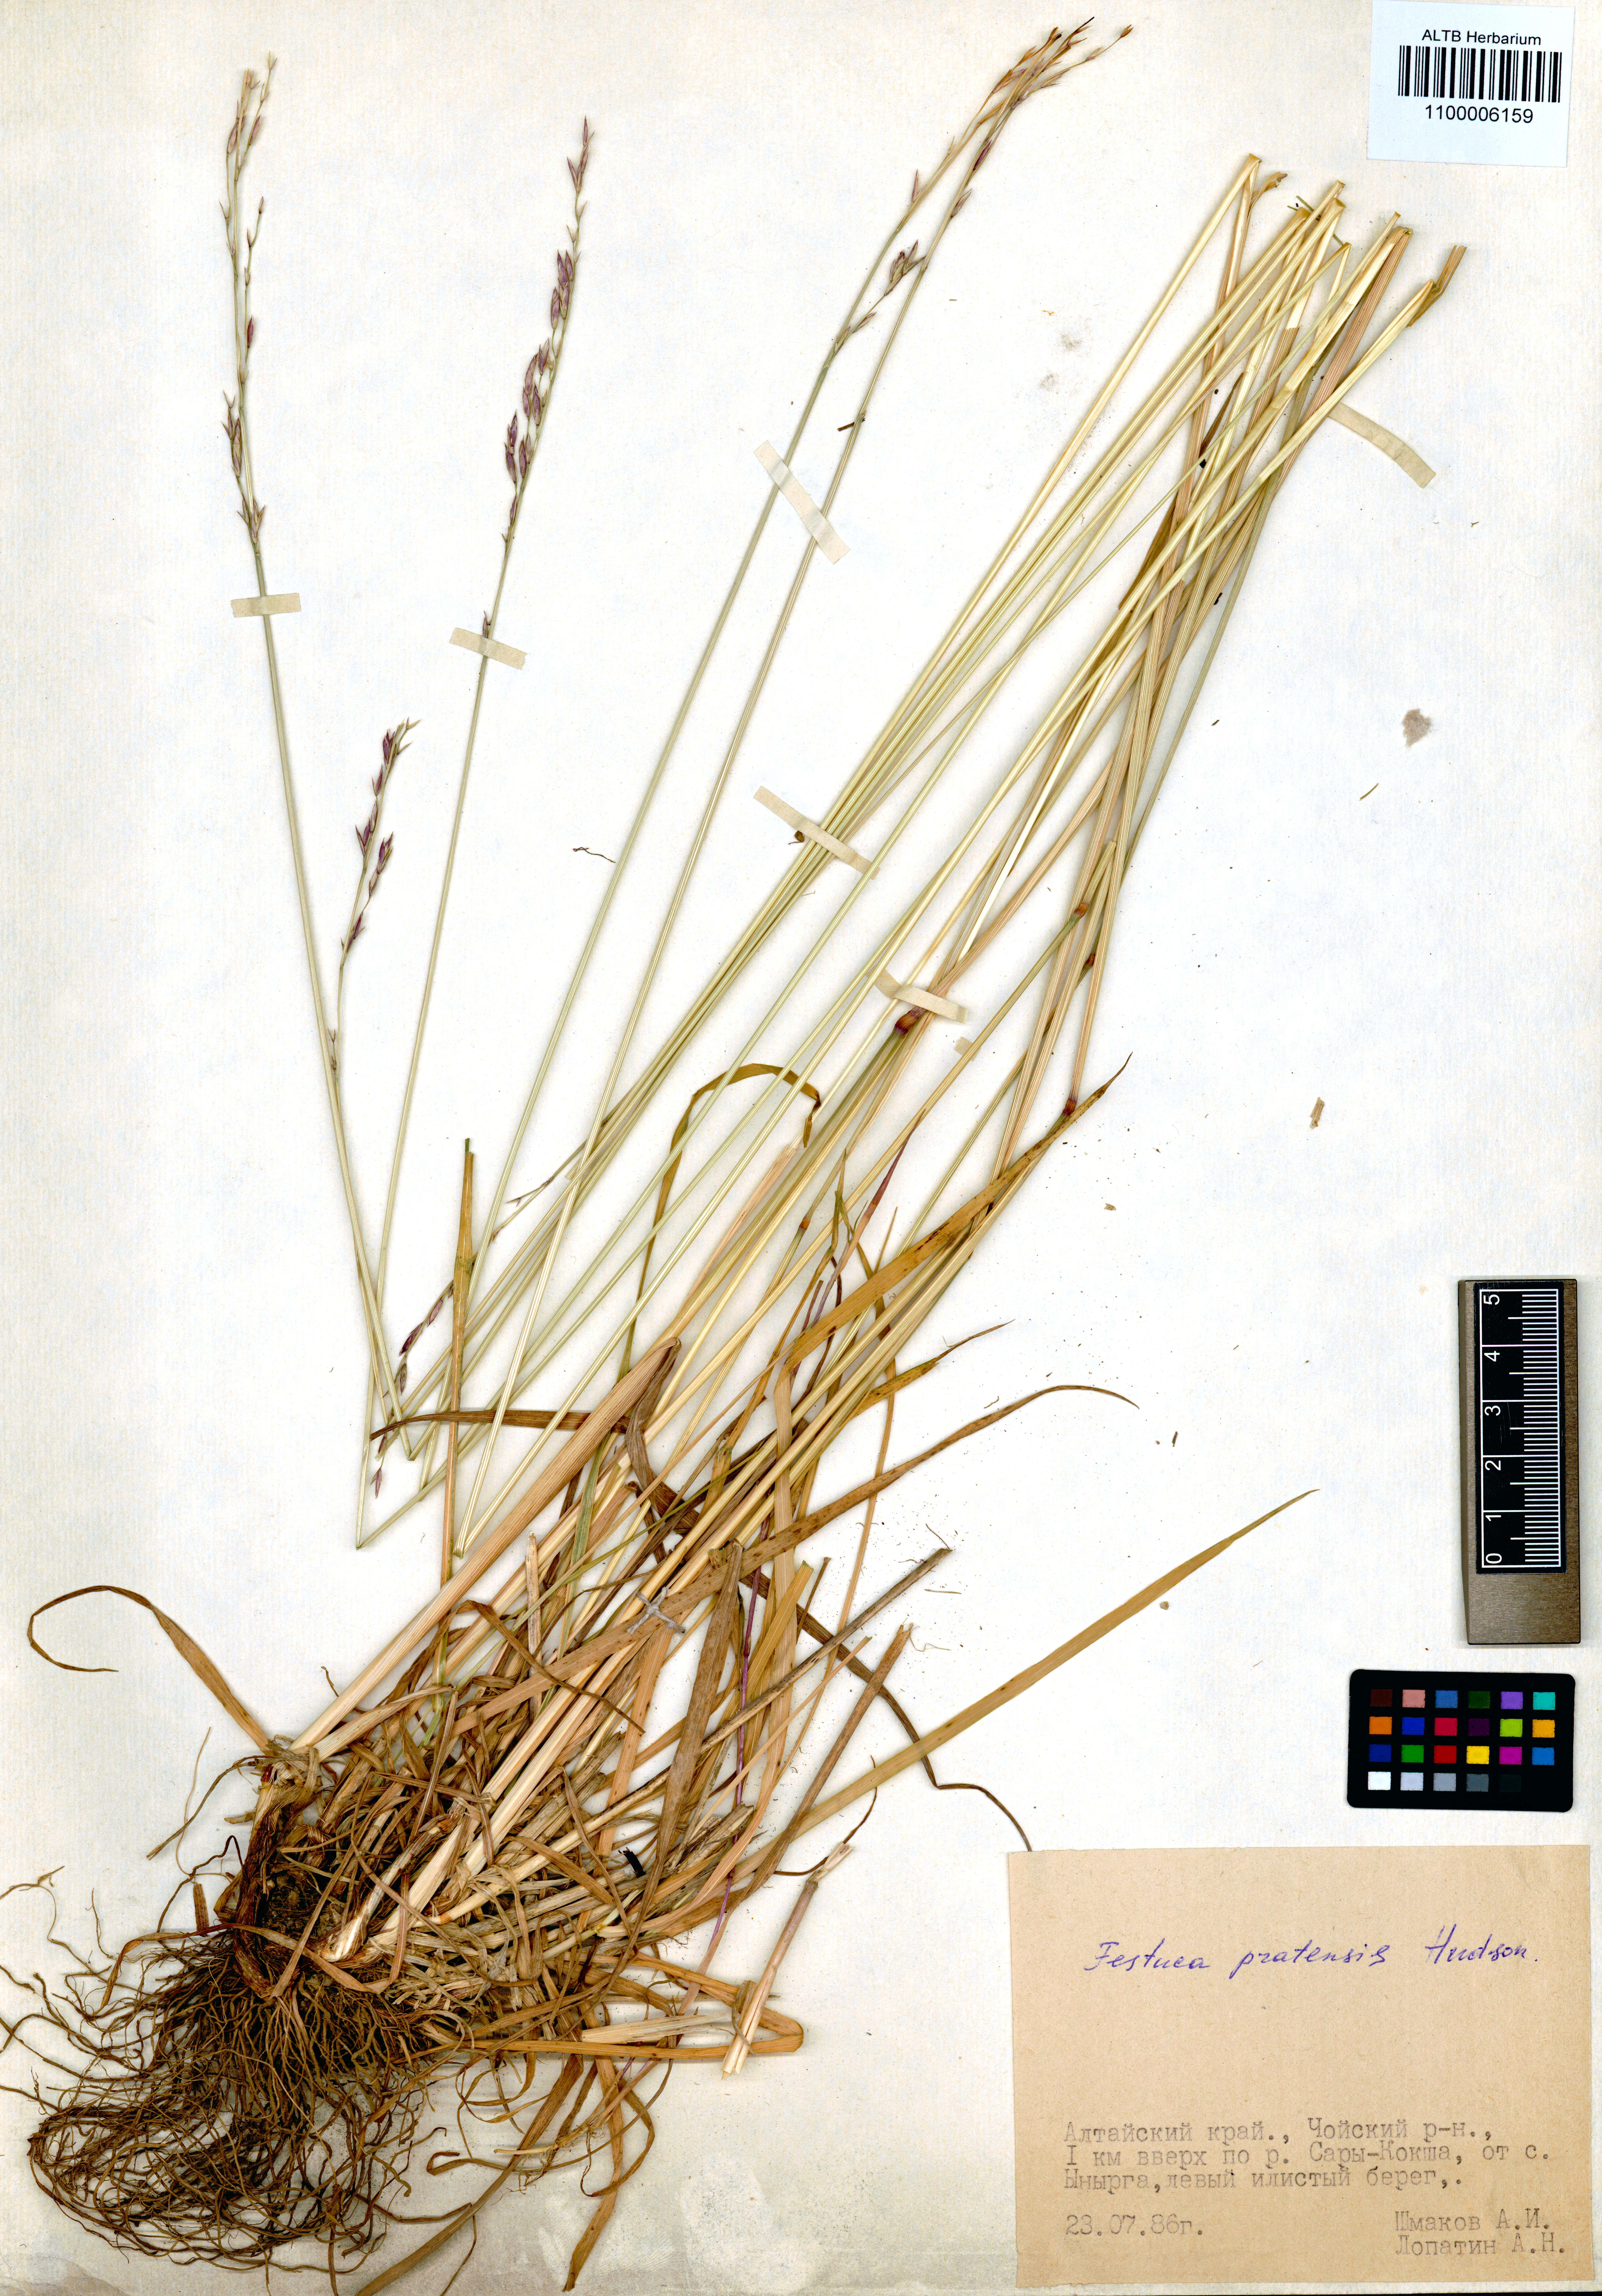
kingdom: Plantae
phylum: Tracheophyta
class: Liliopsida
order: Poales
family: Poaceae
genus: Lolium
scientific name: Lolium pratense
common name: Dover grass
